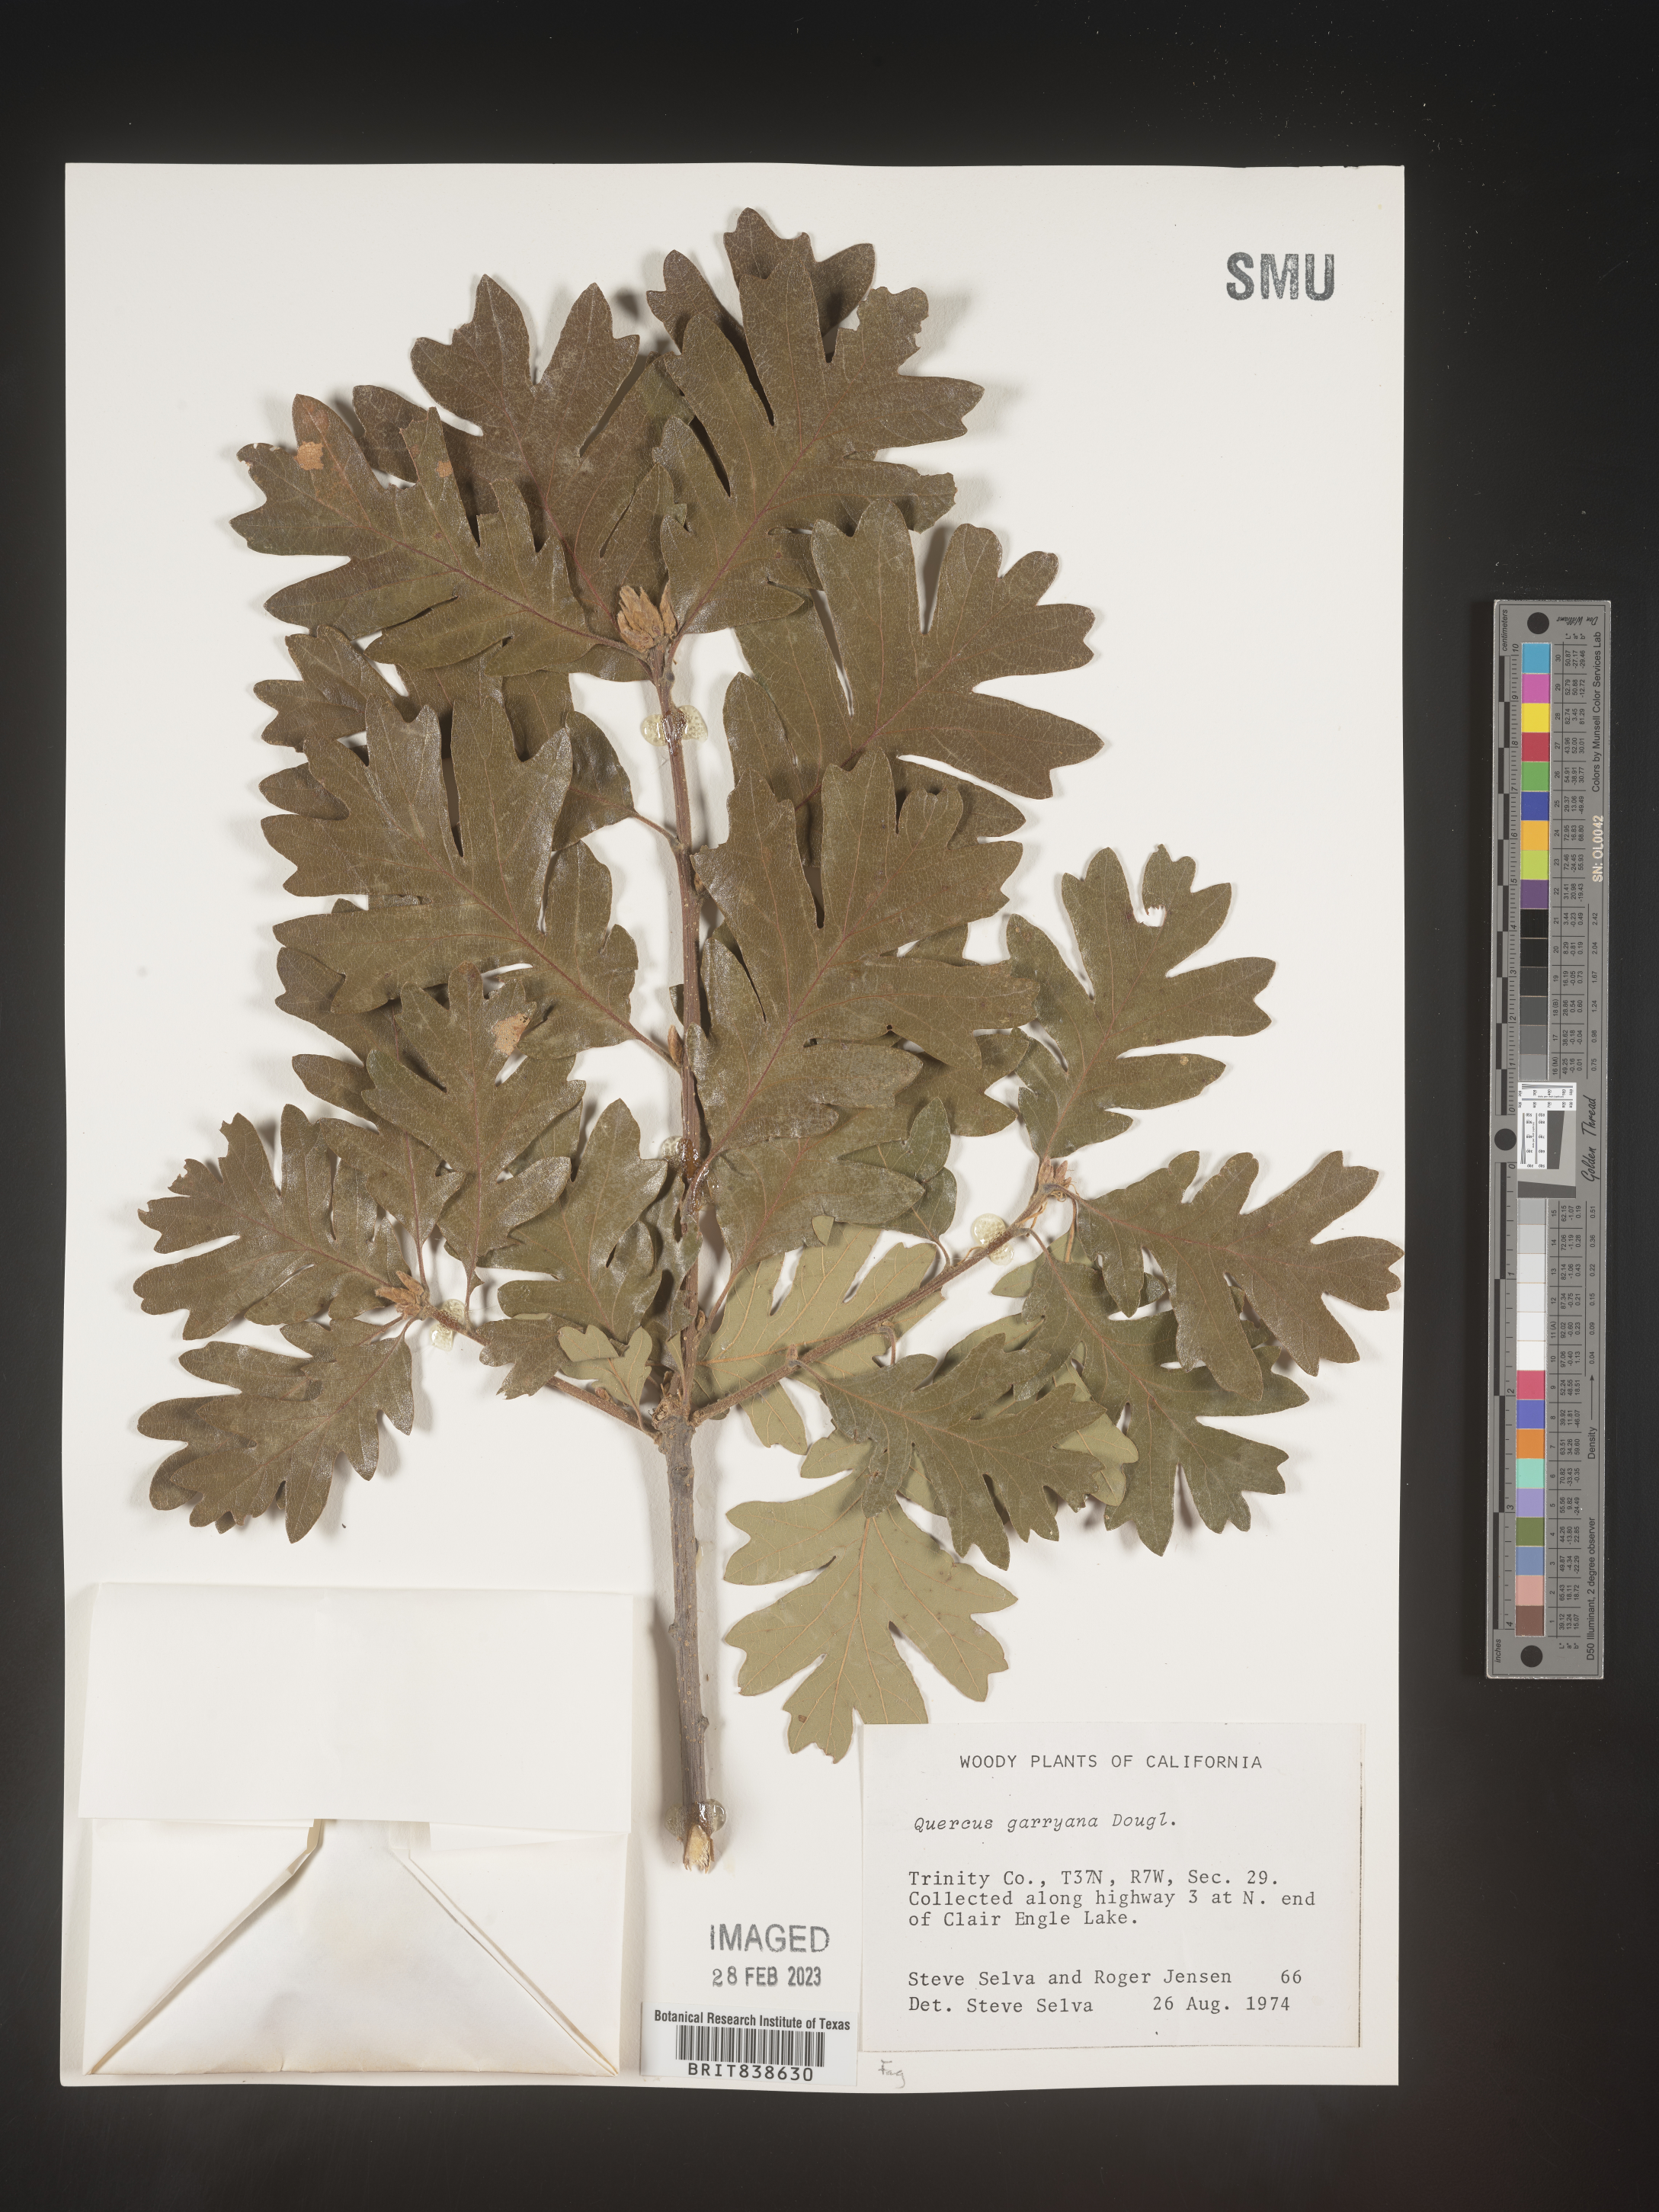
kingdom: Plantae
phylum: Tracheophyta
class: Magnoliopsida
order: Fagales
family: Fagaceae
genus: Quercus
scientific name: Quercus garryana
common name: Garry oak
